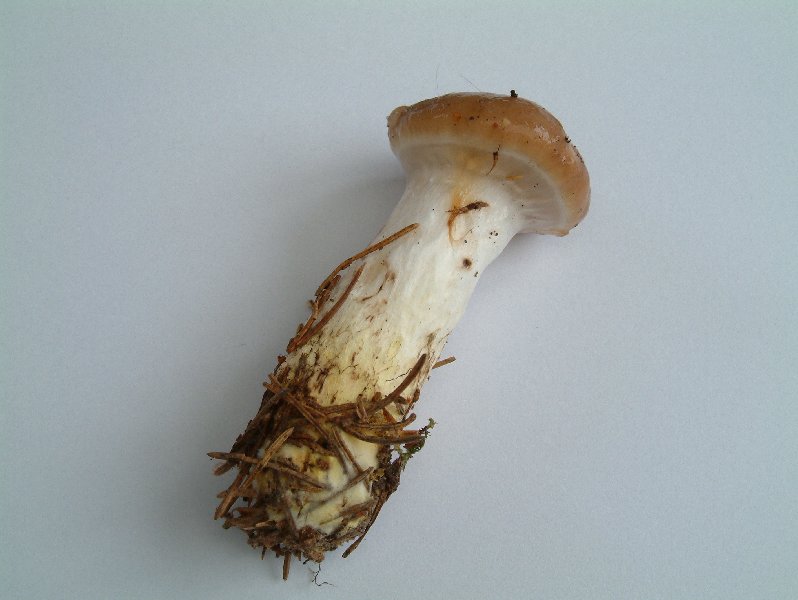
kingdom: Fungi
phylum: Basidiomycota
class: Agaricomycetes
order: Boletales
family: Gomphidiaceae
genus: Gomphidius
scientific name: Gomphidius glutinosus
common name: grå slimslør
